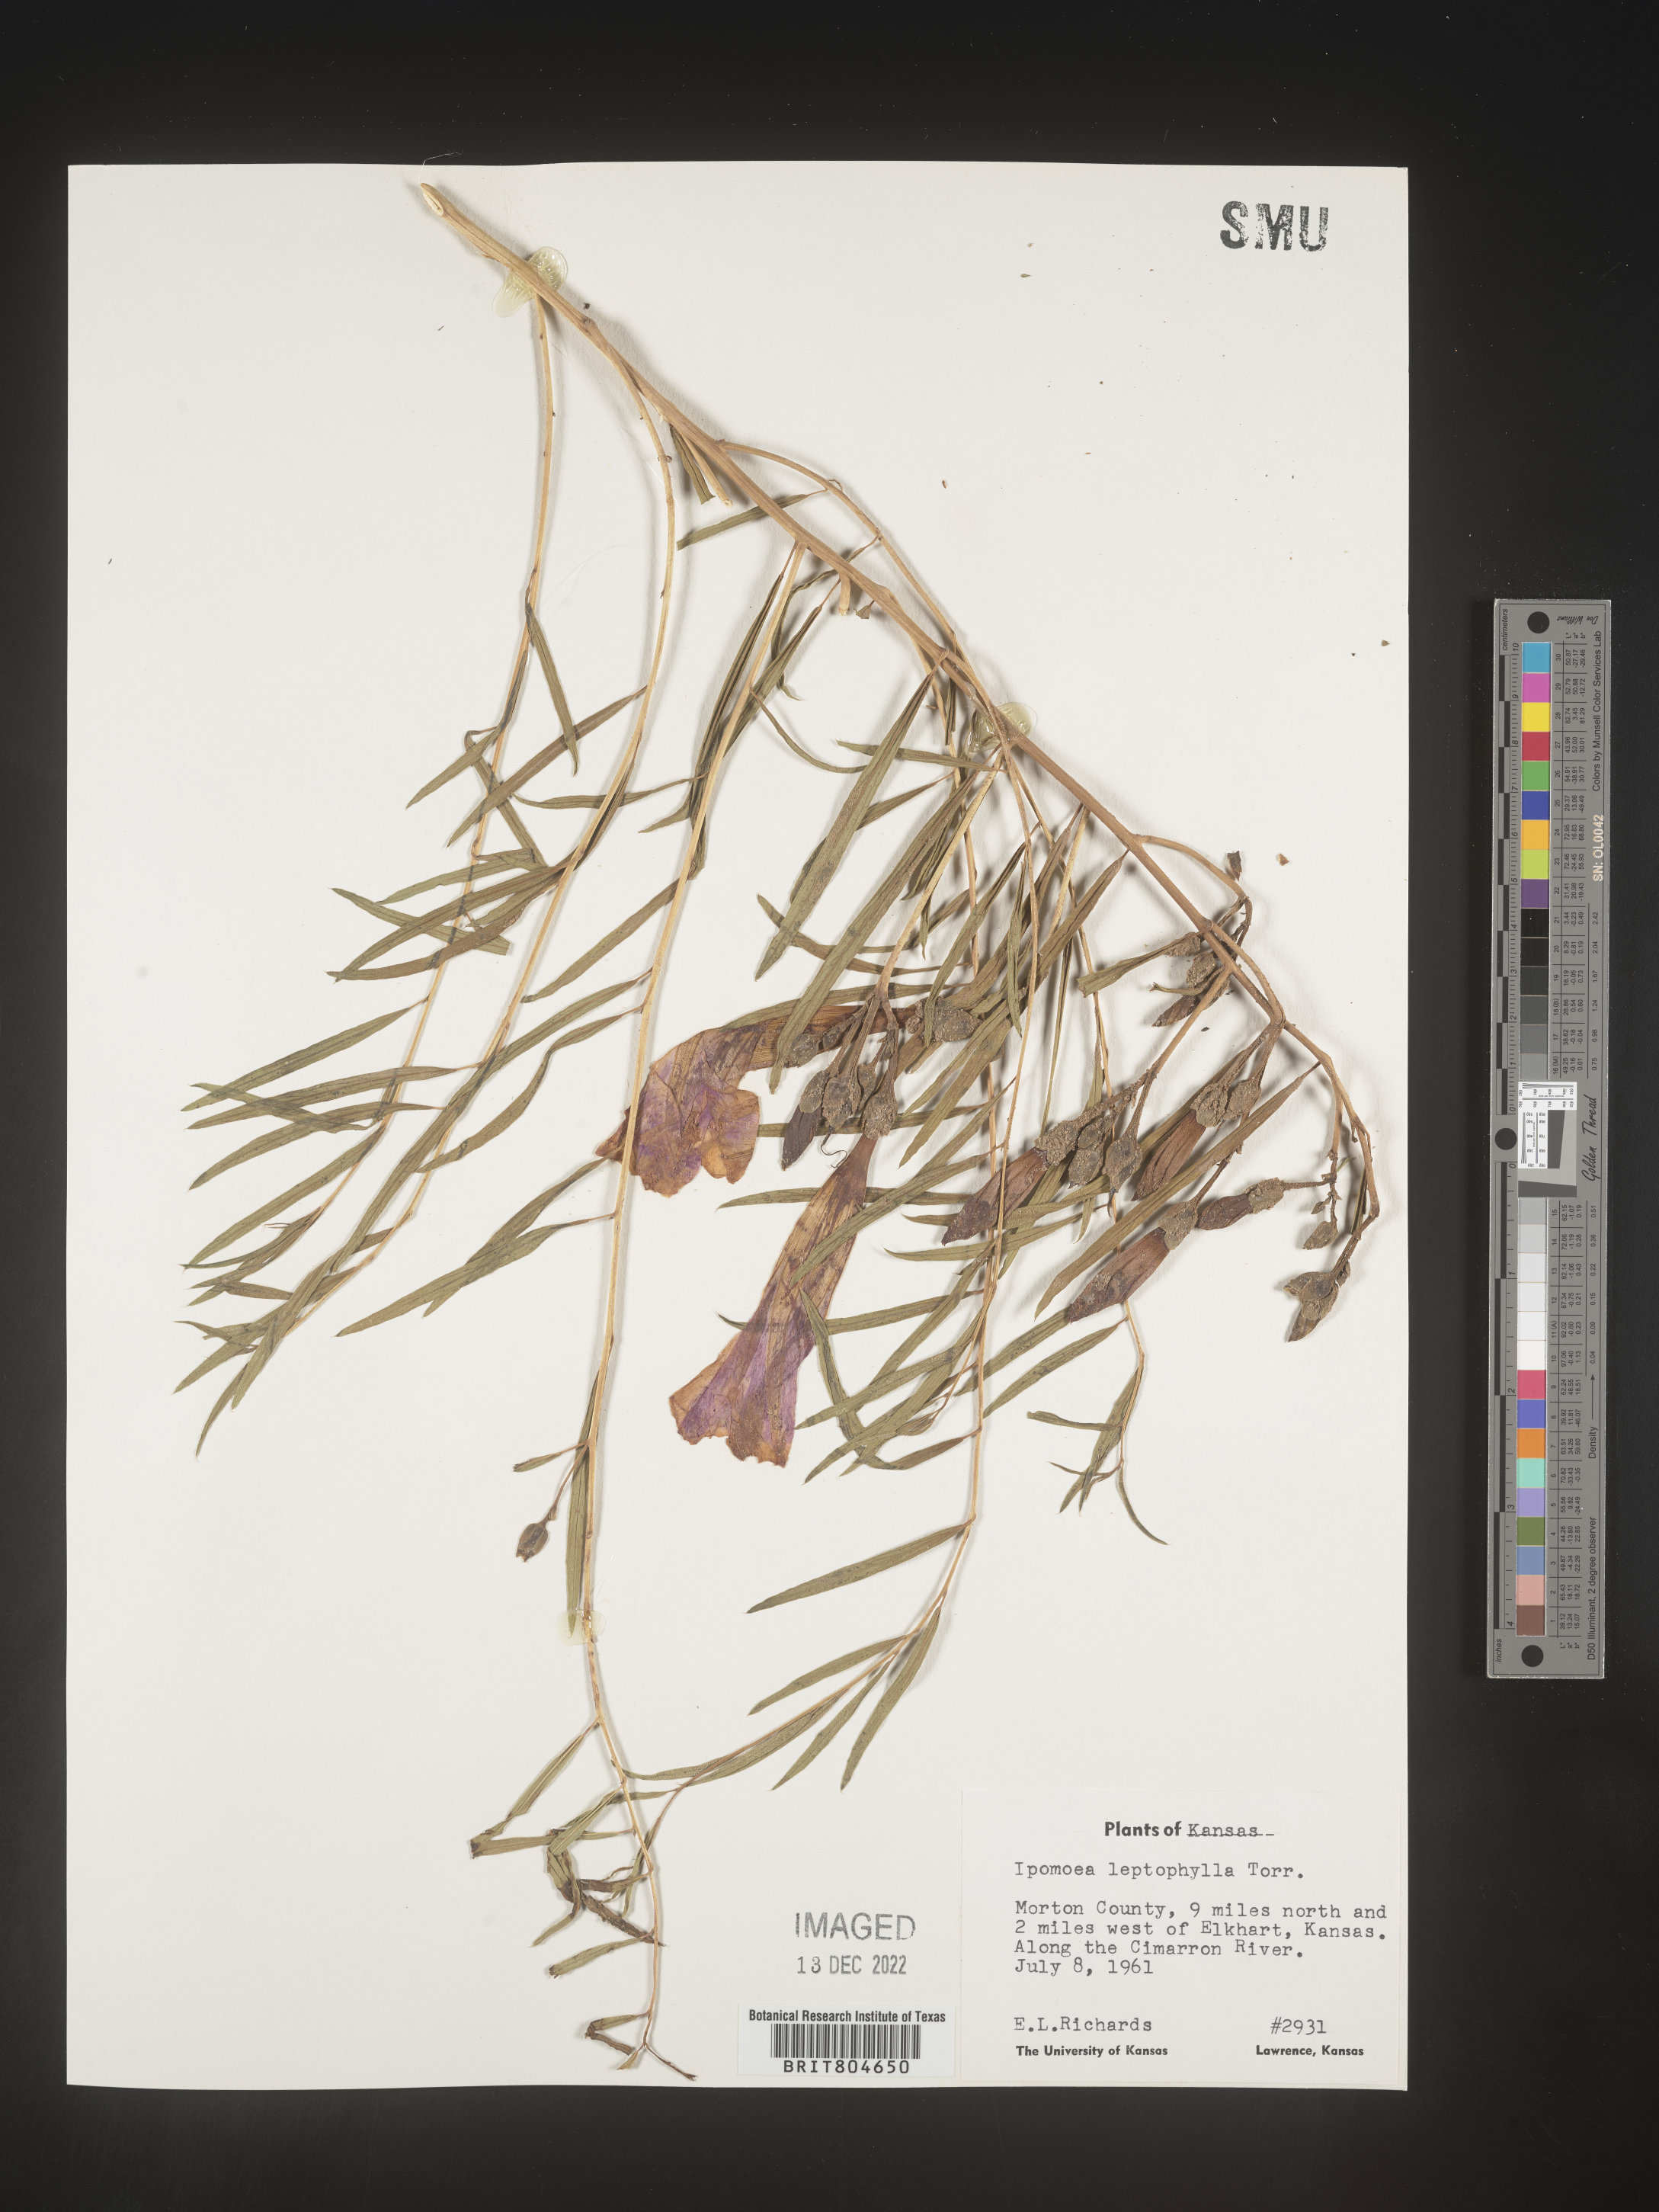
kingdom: Plantae
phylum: Tracheophyta
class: Magnoliopsida
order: Solanales
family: Convolvulaceae
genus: Ipomoea
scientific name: Ipomoea leptophylla
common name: Bush moonflower
